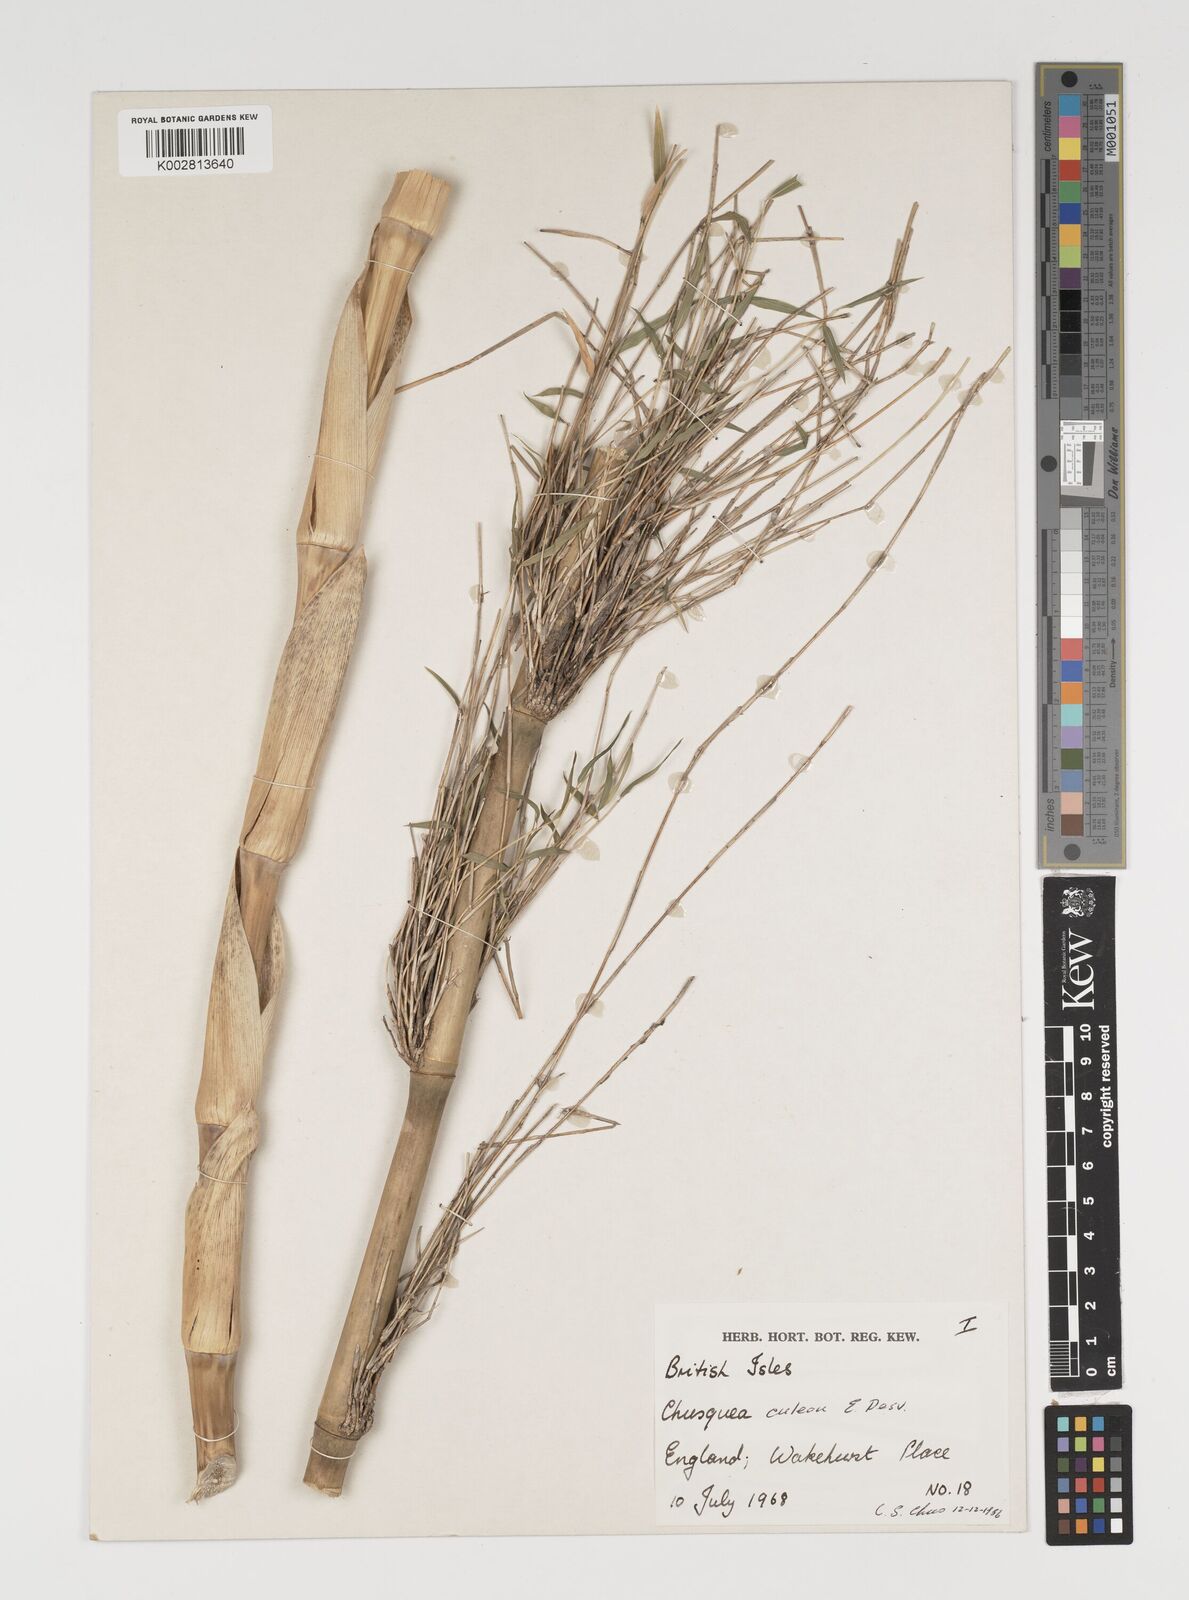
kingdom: Plantae
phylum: Tracheophyta
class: Liliopsida
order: Poales
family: Poaceae
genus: Chusquea
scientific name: Chusquea culeou
